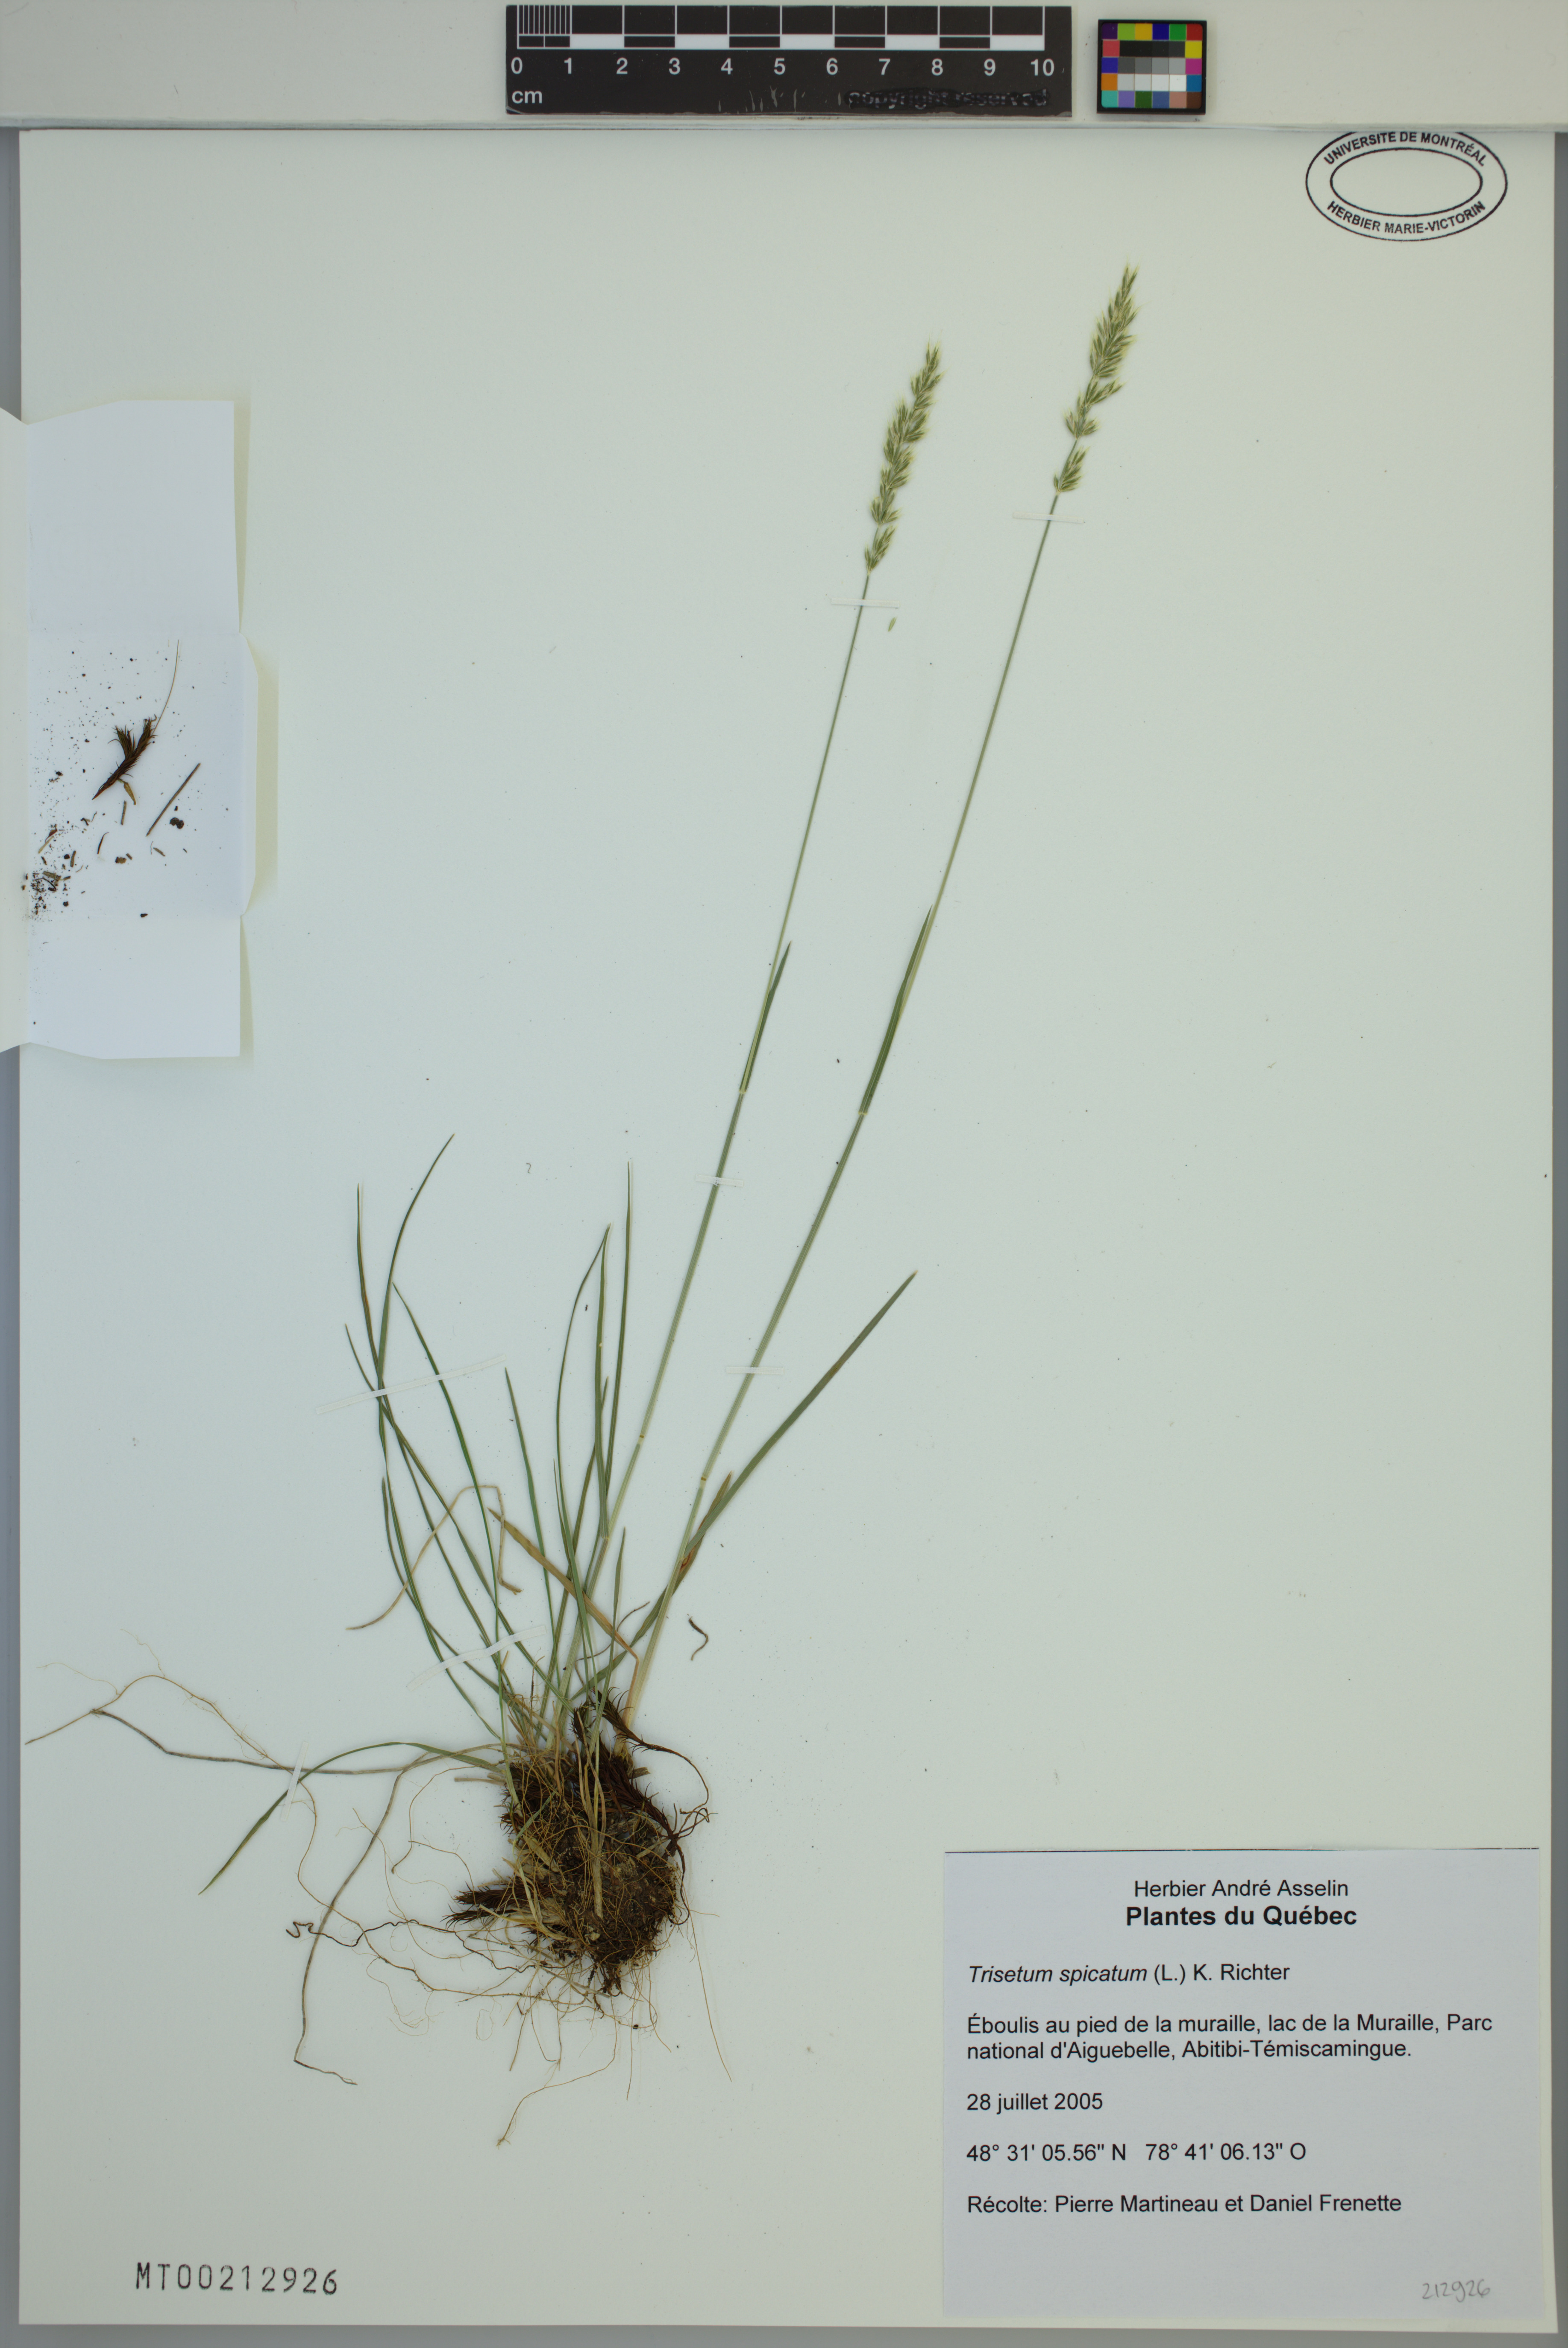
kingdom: Plantae
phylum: Tracheophyta
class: Liliopsida
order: Poales
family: Poaceae
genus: Koeleria
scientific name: Koeleria spicata
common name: Mountain trisetum
